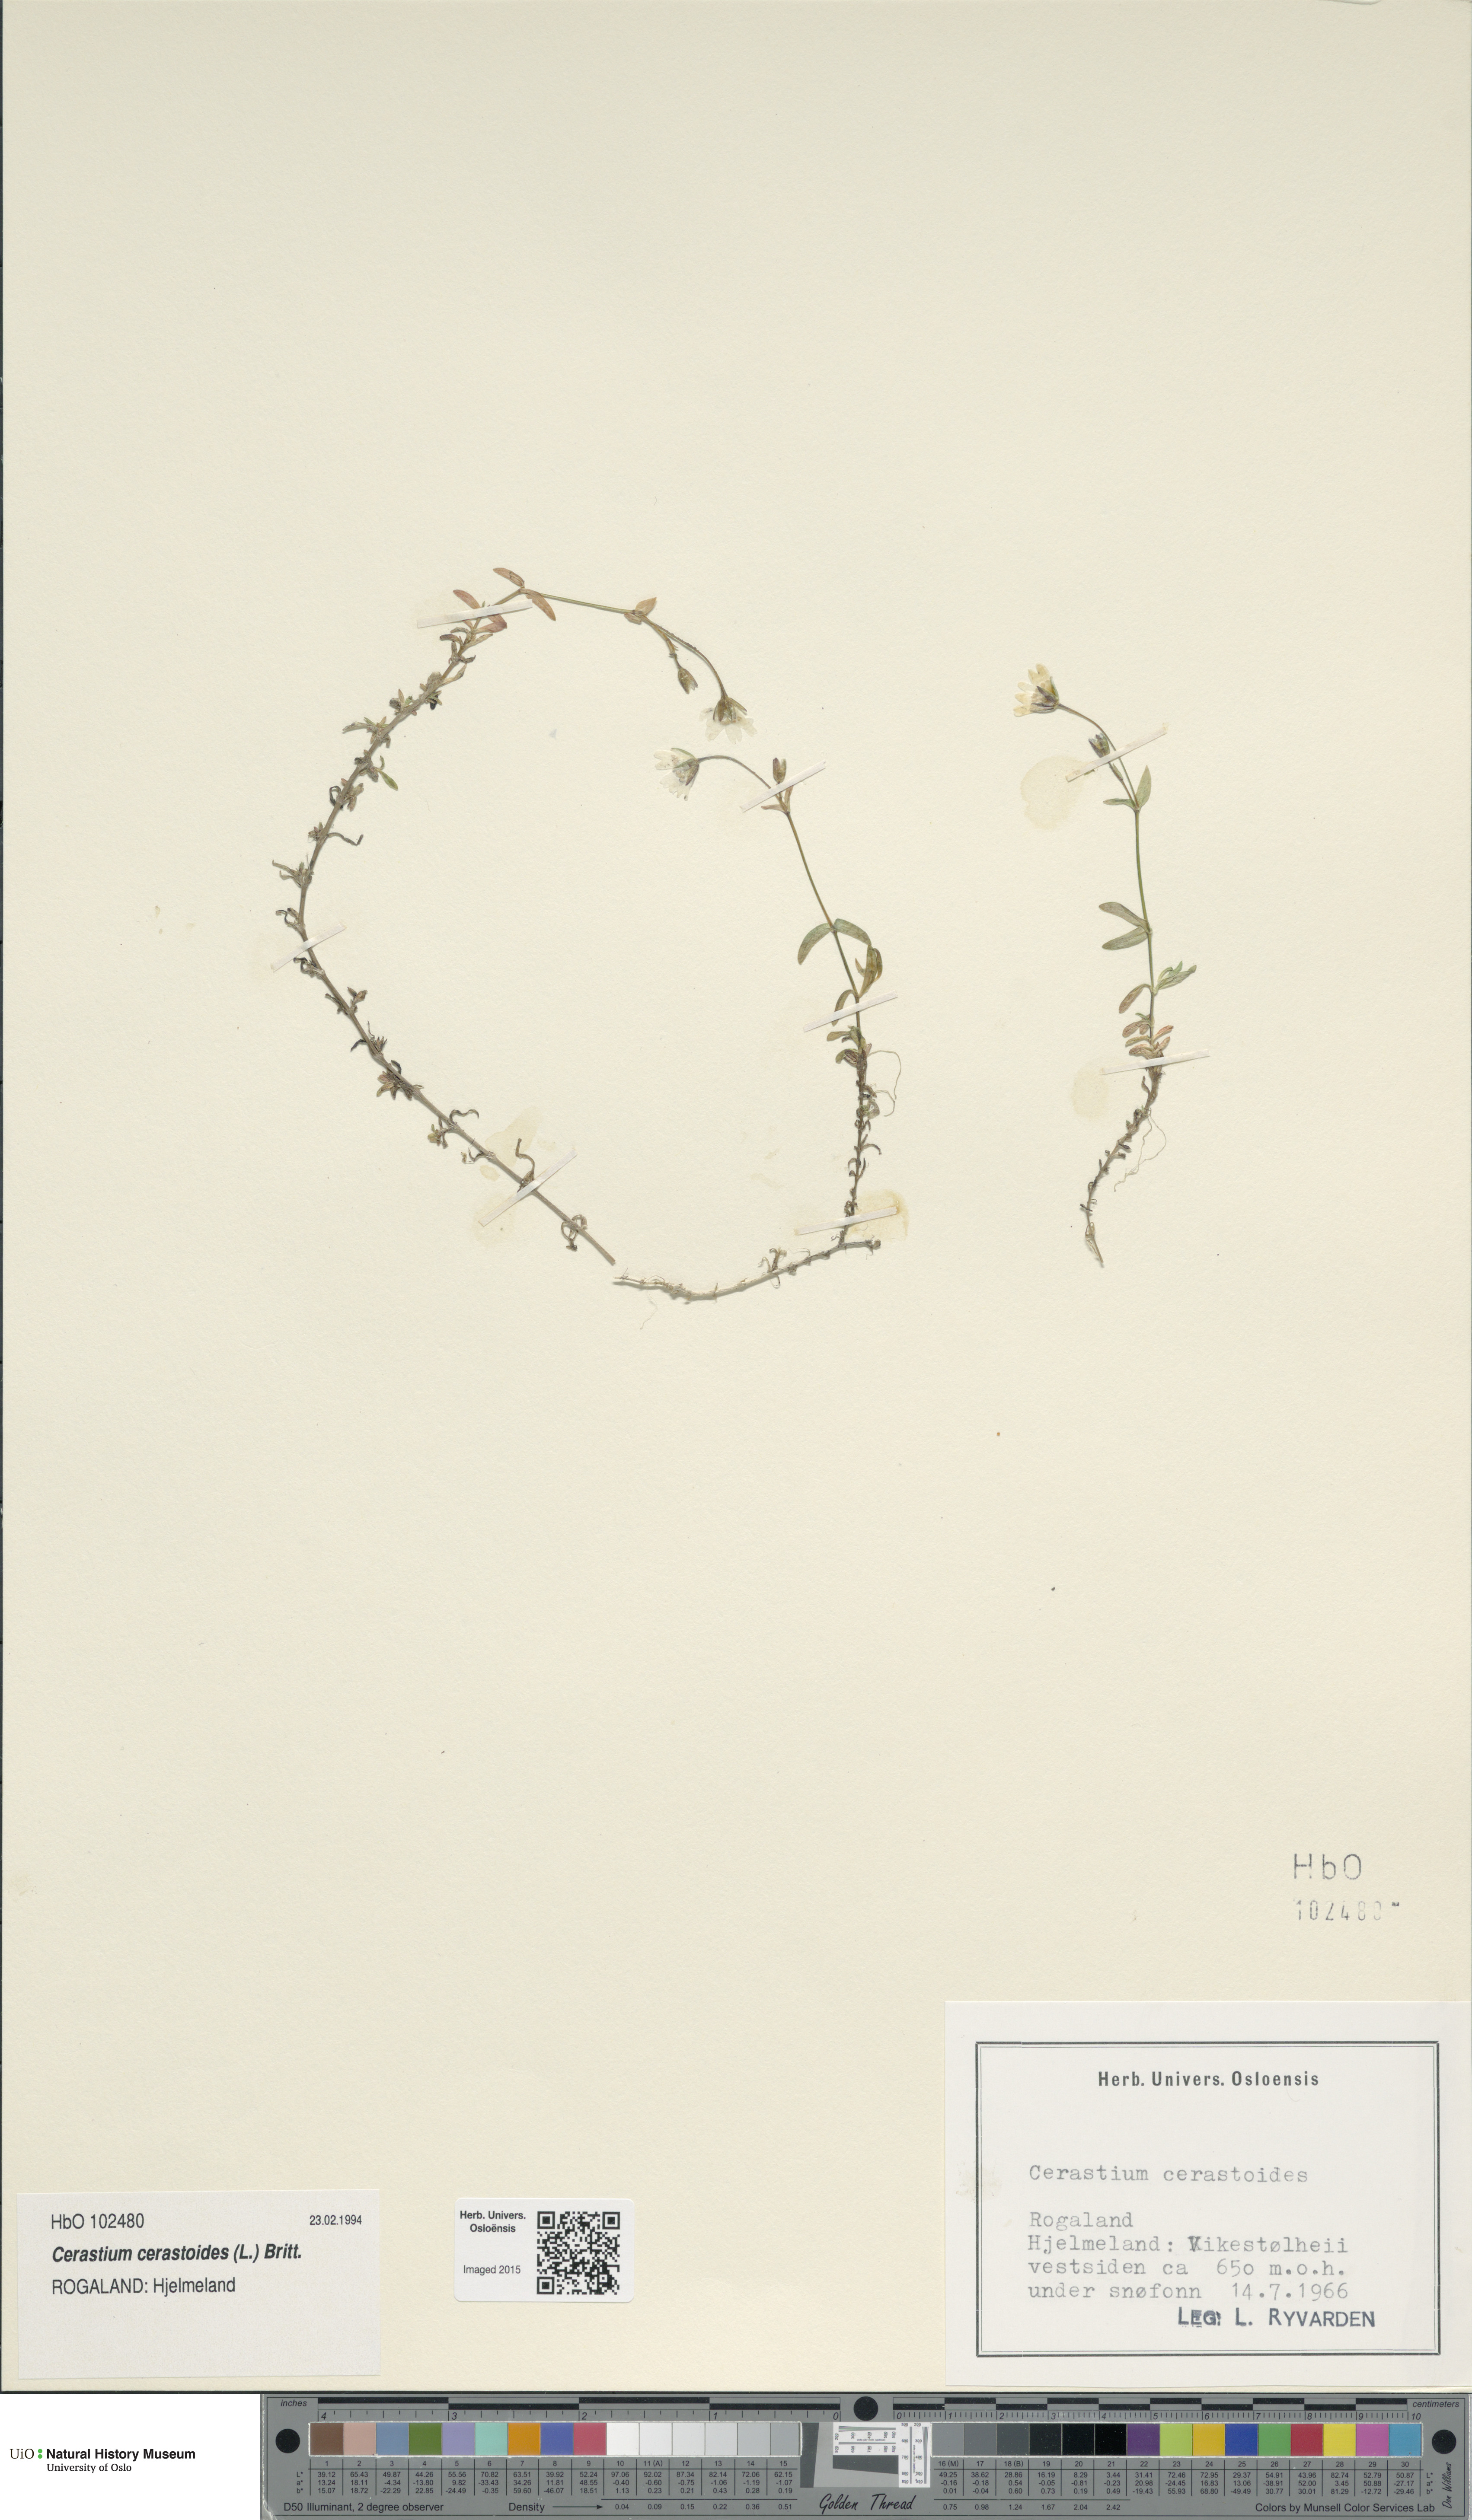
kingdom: Plantae
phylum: Tracheophyta
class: Magnoliopsida
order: Caryophyllales
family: Caryophyllaceae
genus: Dichodon
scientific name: Dichodon cerastoides
